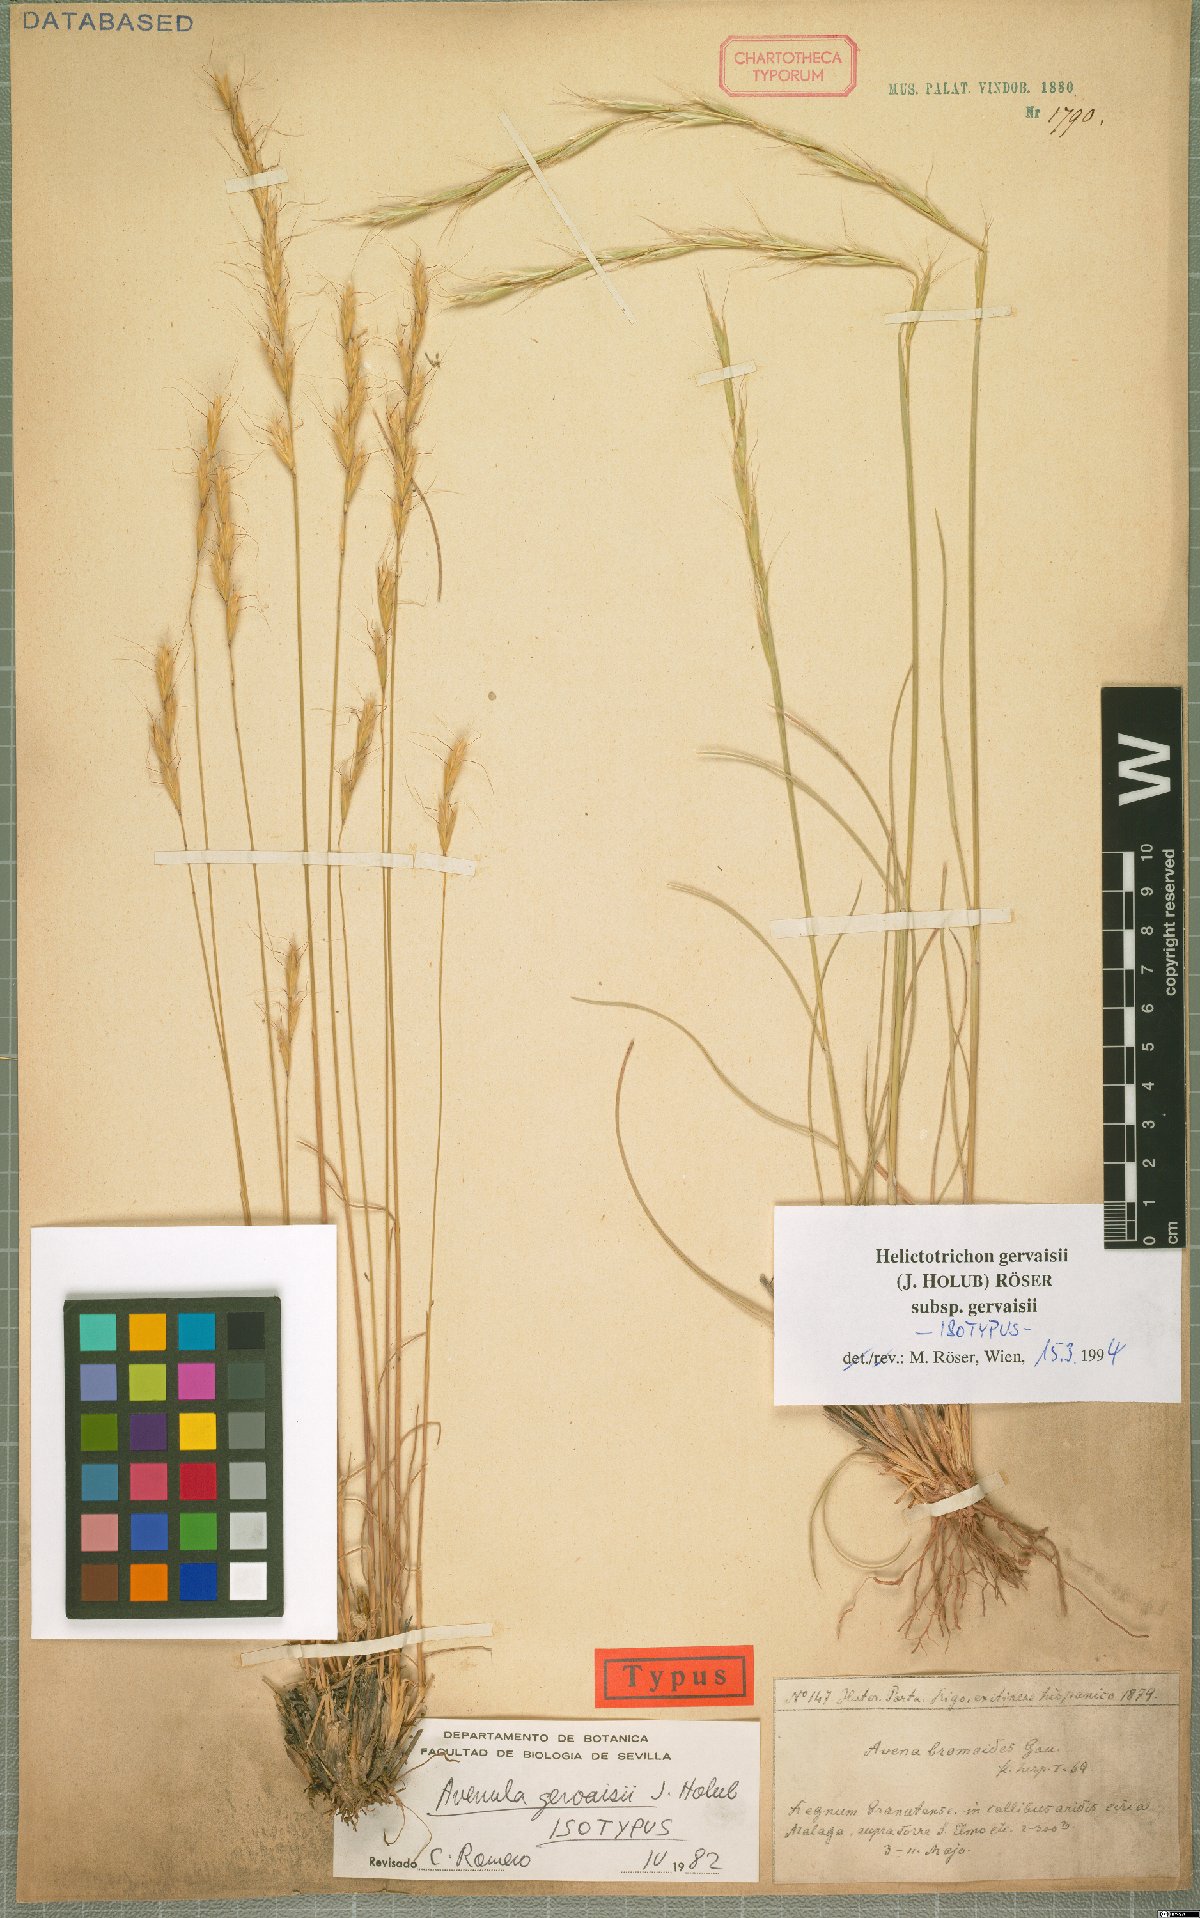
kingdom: Plantae
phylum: Tracheophyta
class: Liliopsida
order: Poales
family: Poaceae
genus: Helictochloa
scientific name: Helictochloa gervaisii
